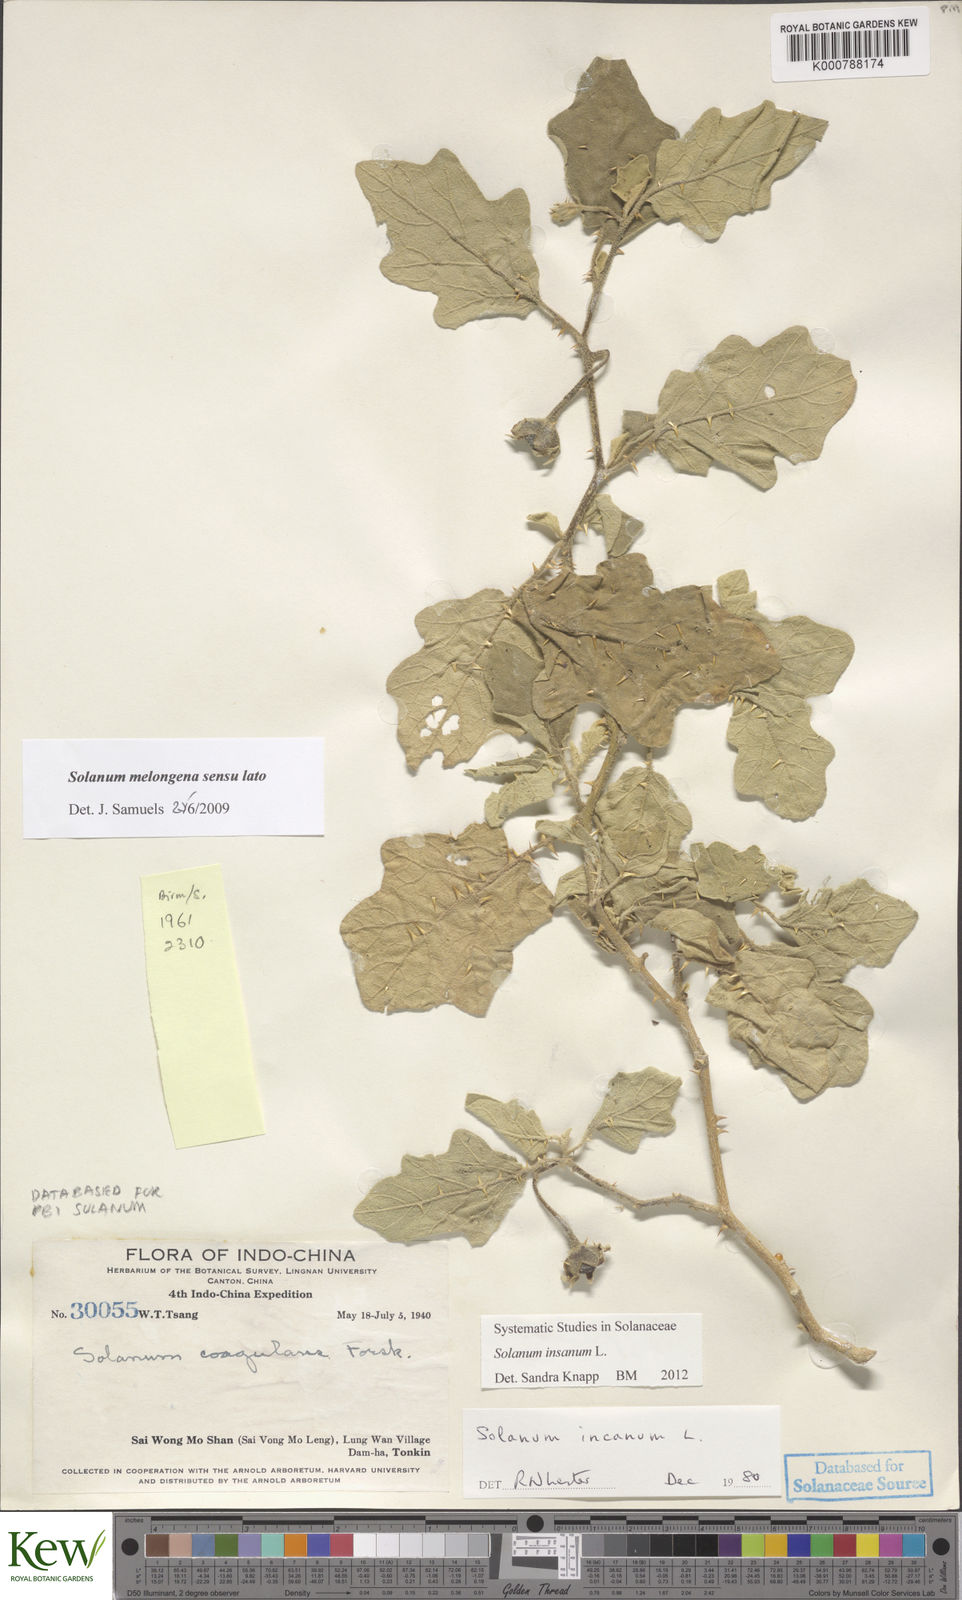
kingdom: Plantae
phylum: Tracheophyta
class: Magnoliopsida
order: Solanales
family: Solanaceae
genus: Solanum
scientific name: Solanum insanum
